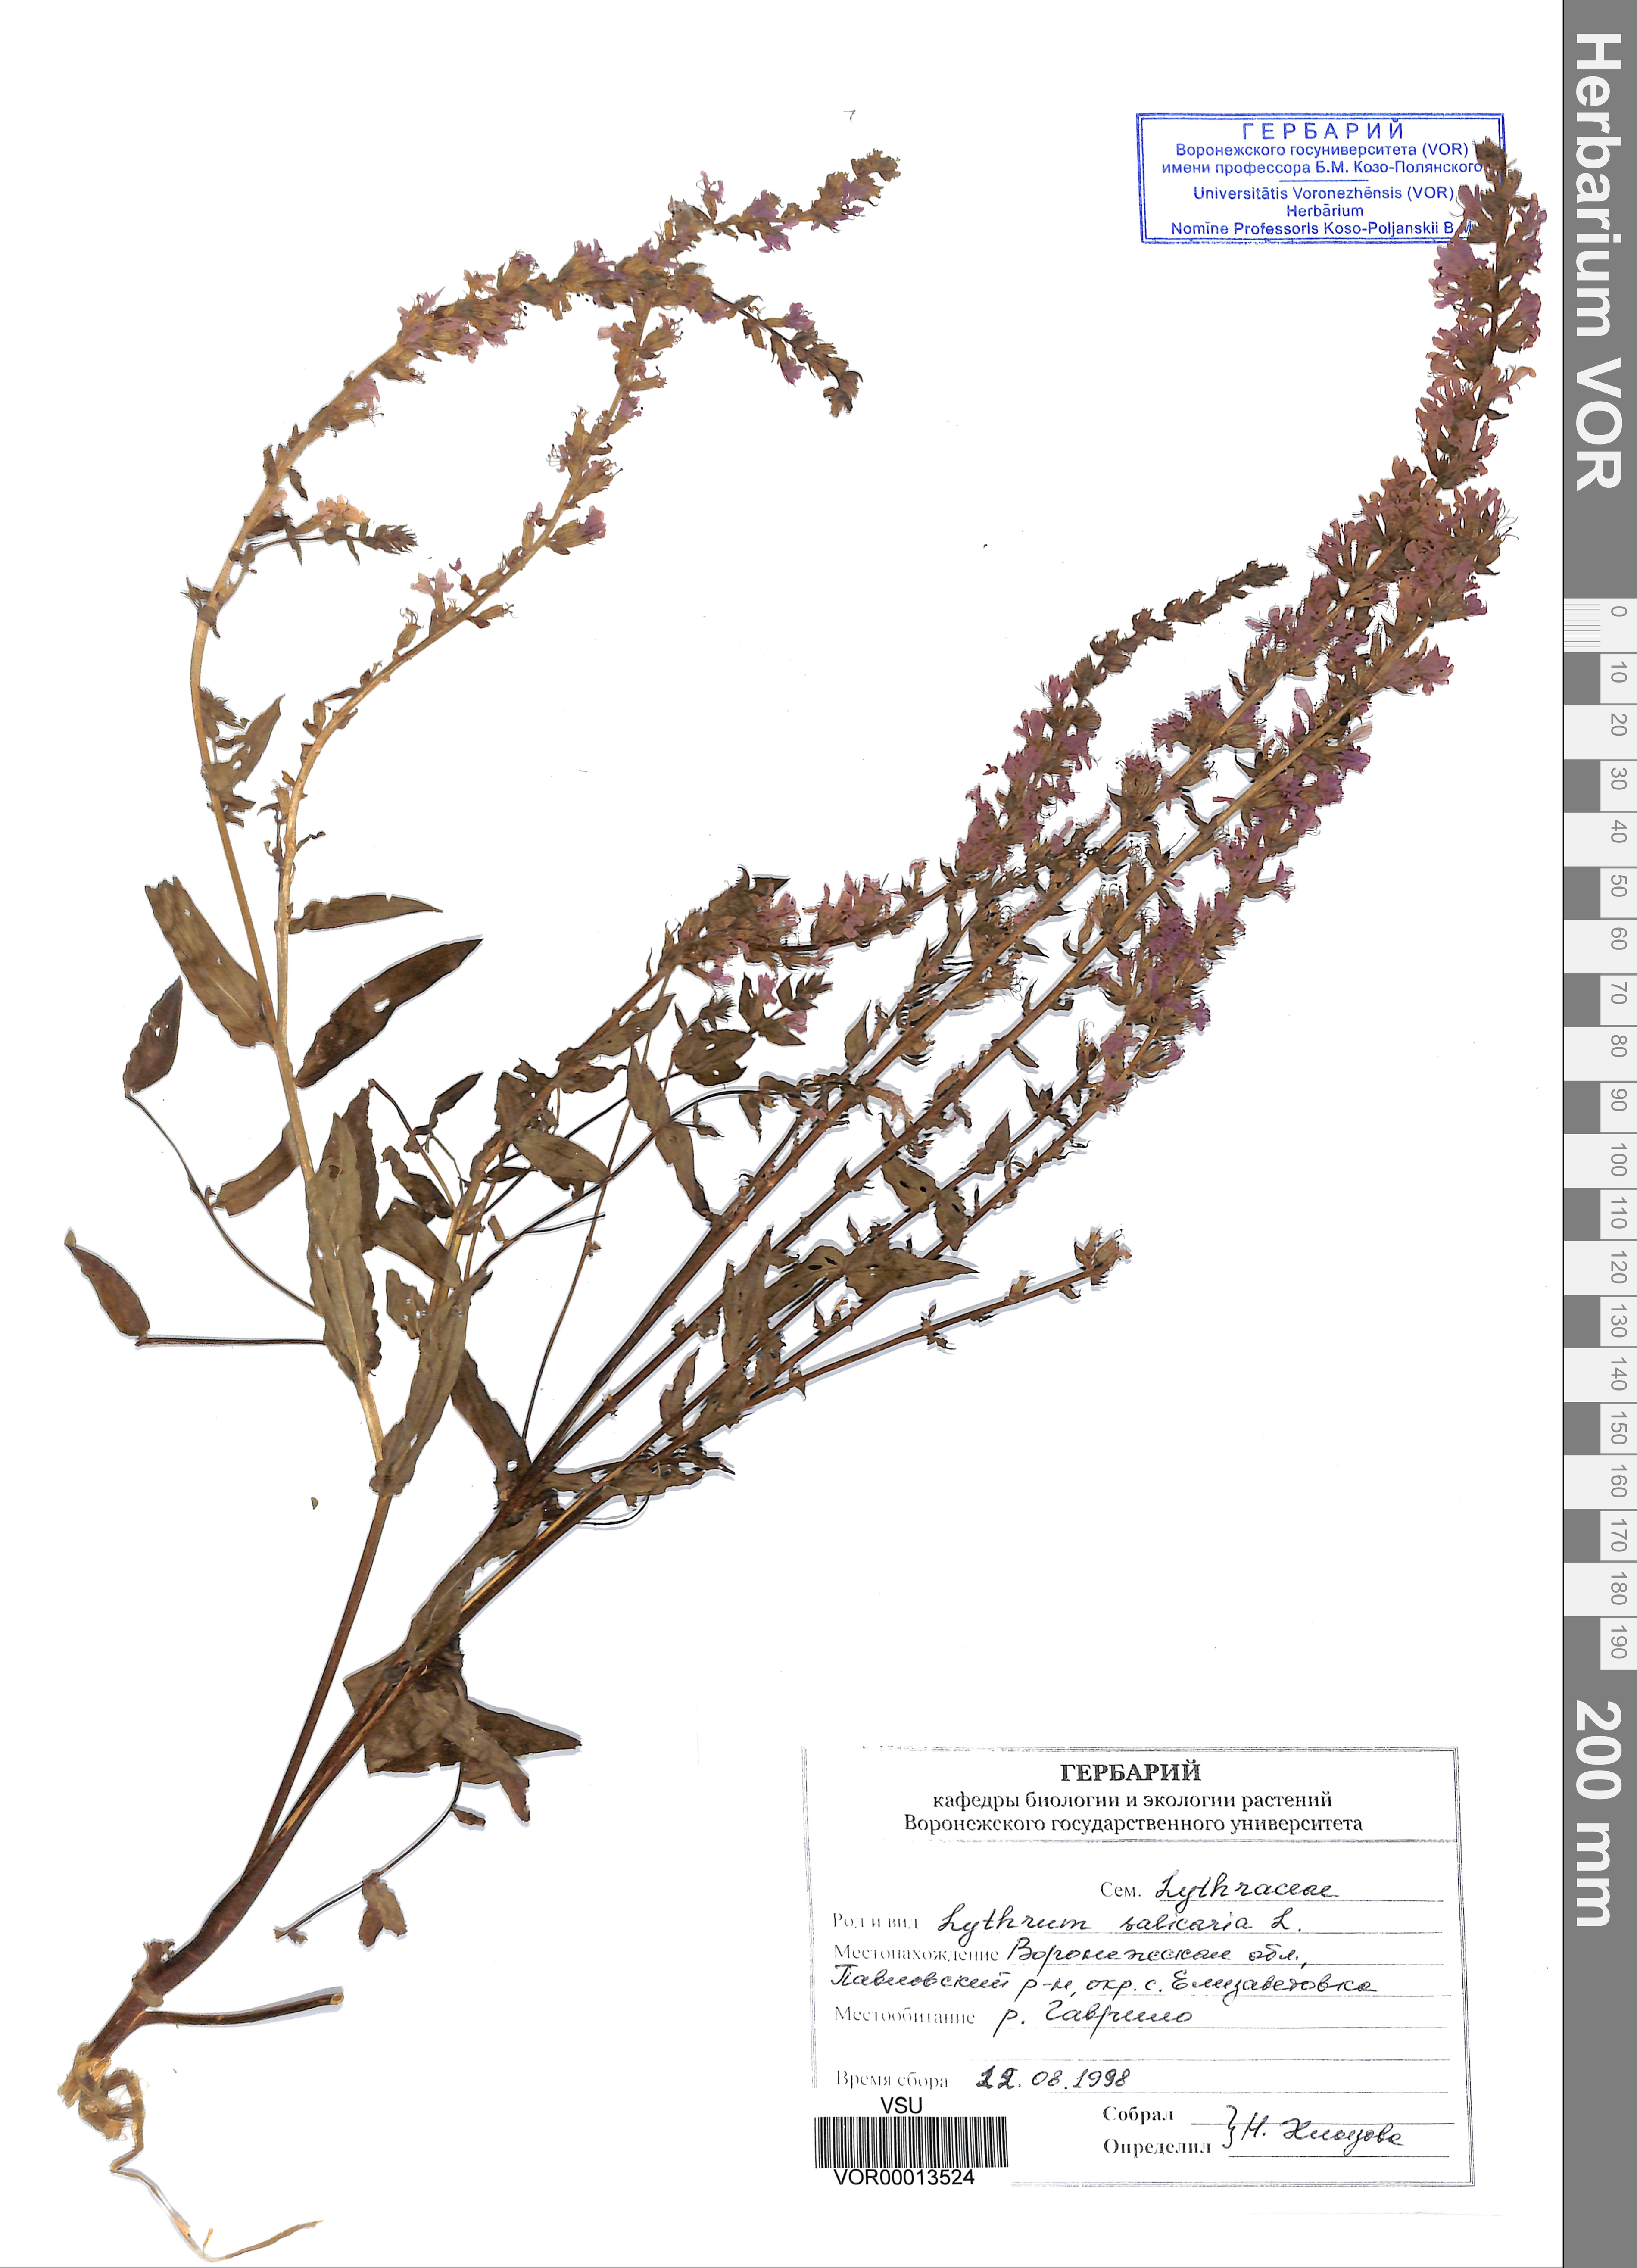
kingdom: Plantae
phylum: Tracheophyta
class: Magnoliopsida
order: Myrtales
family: Lythraceae
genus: Lythrum
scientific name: Lythrum salicaria
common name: Purple loosestrife
